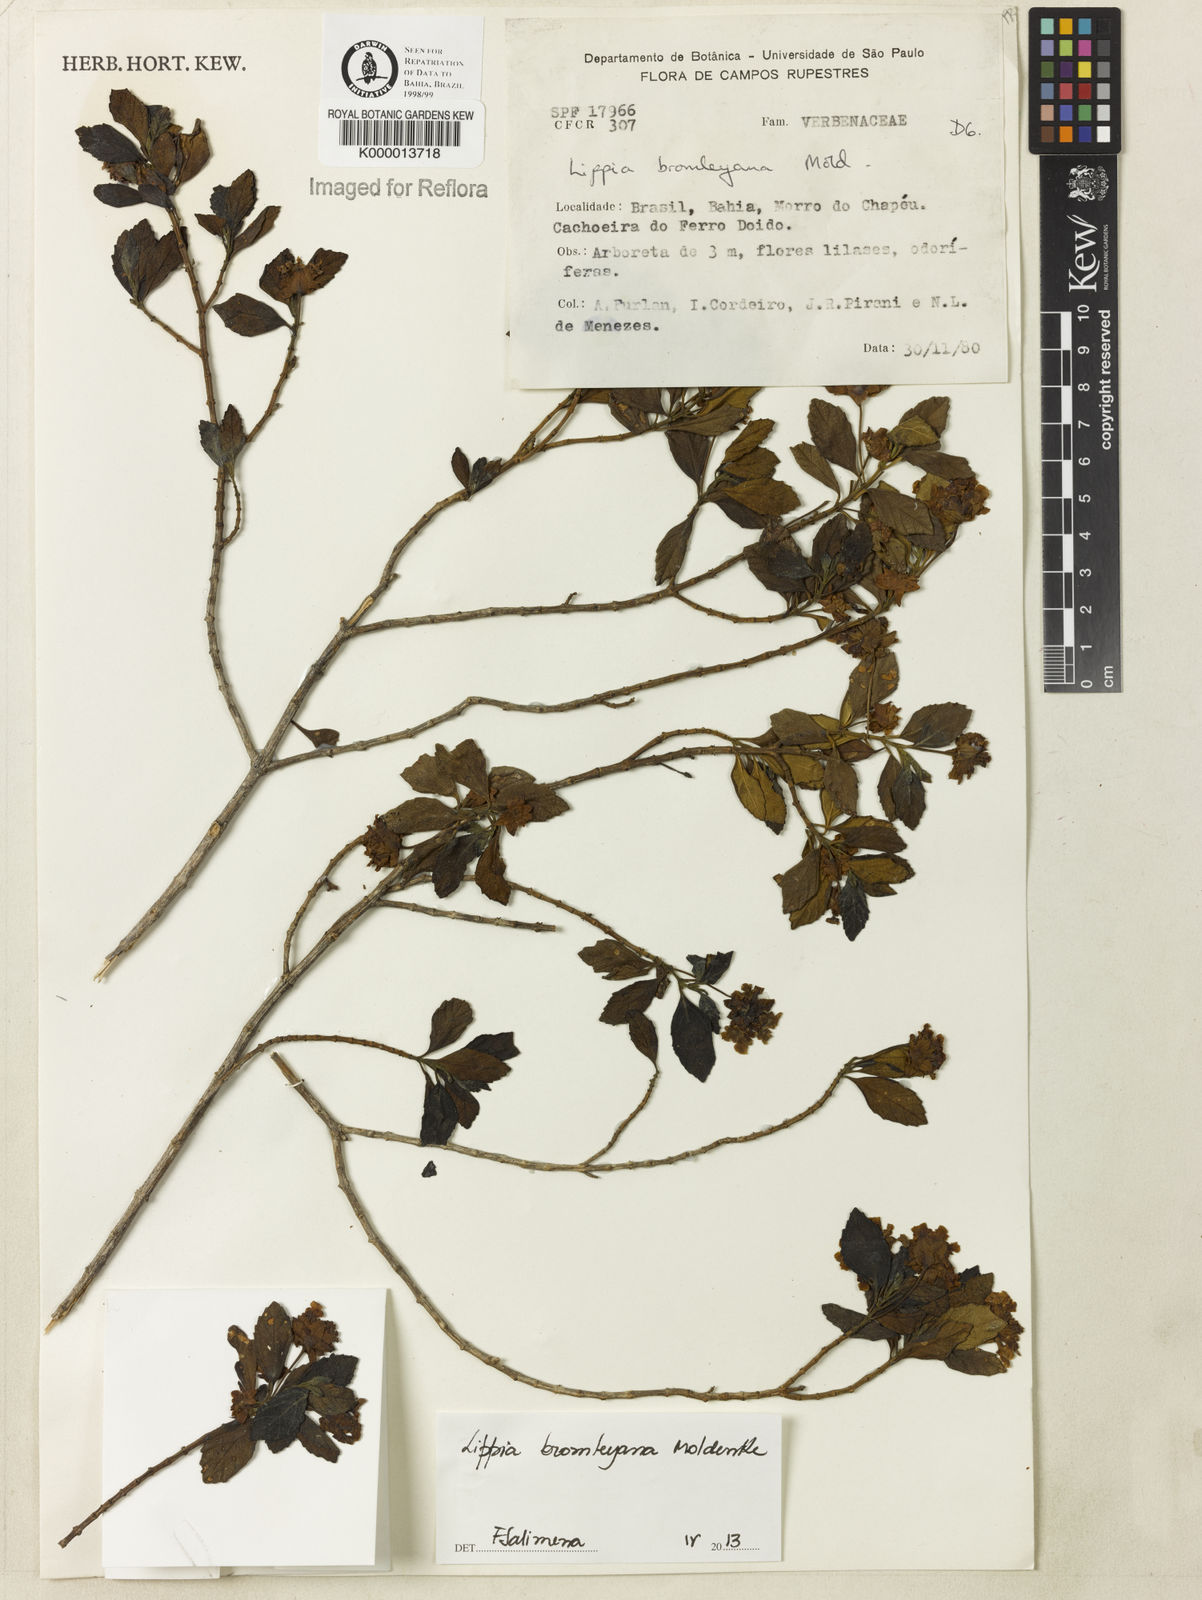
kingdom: Plantae
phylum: Tracheophyta
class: Magnoliopsida
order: Lamiales
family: Verbenaceae
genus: Lippia
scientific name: Lippia bromleyana
